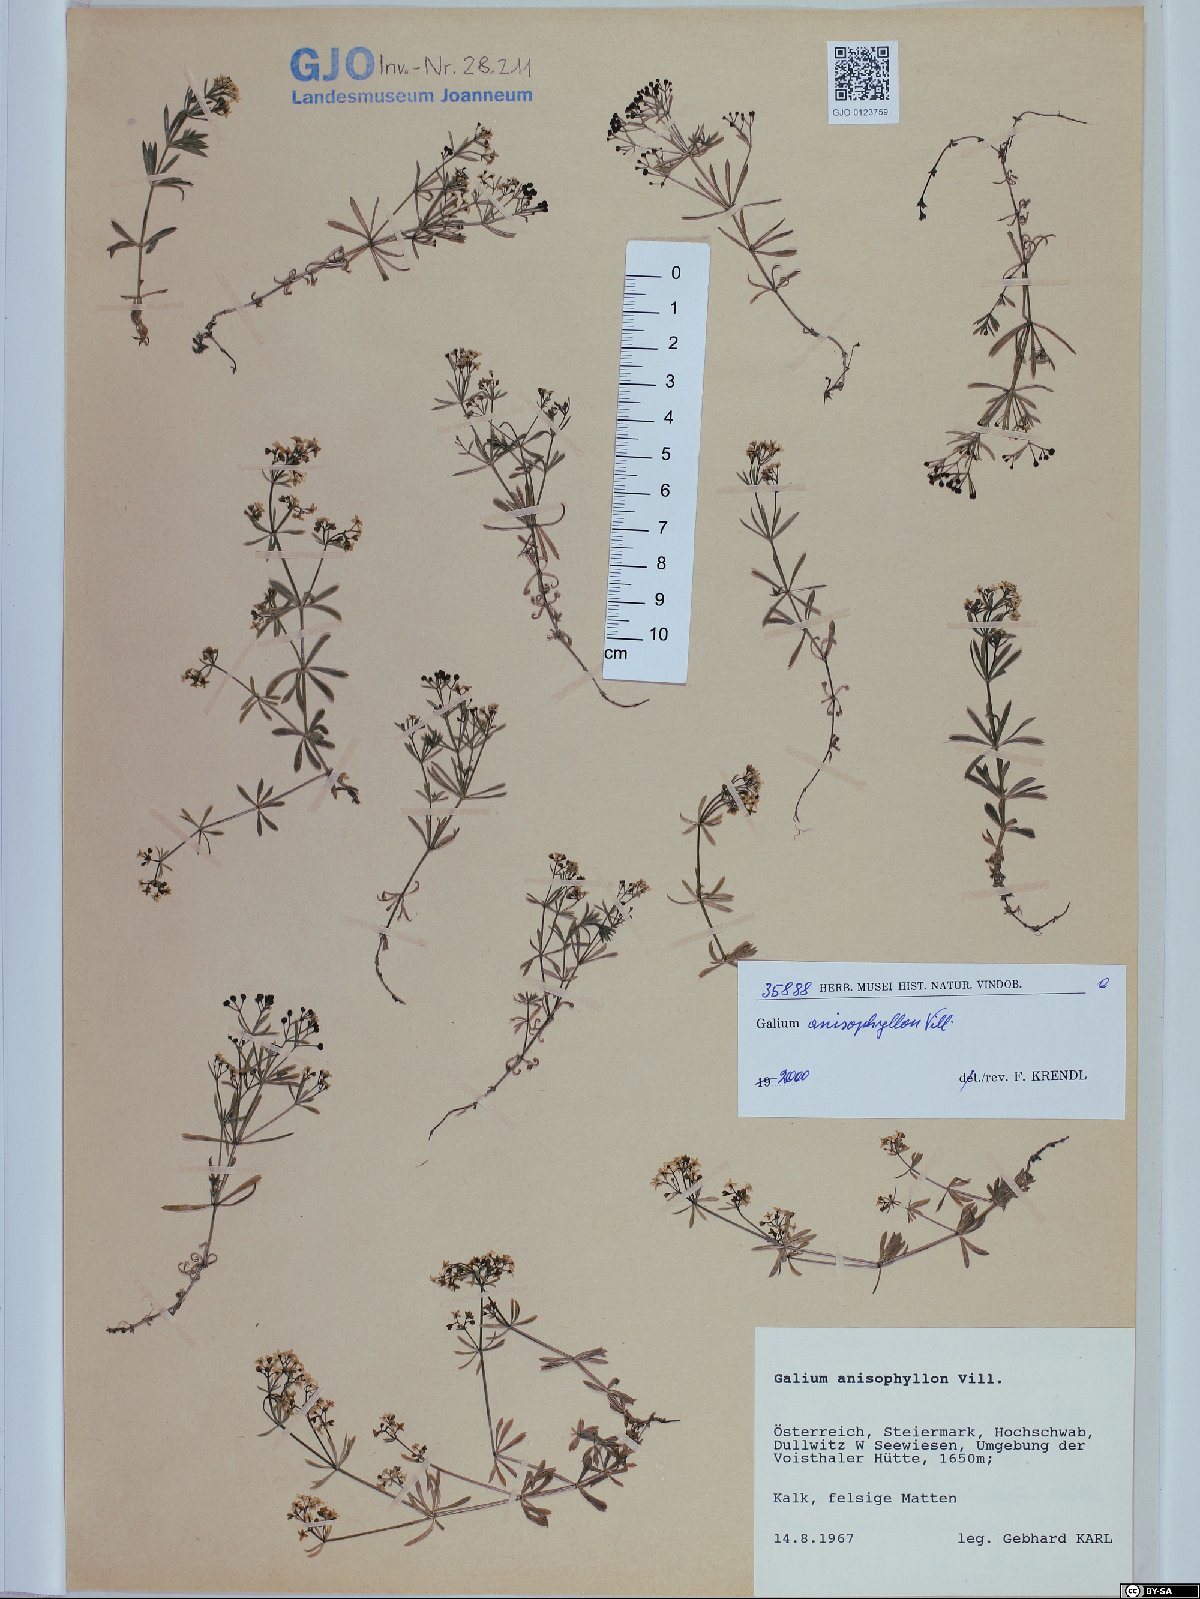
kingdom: Plantae
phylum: Tracheophyta
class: Magnoliopsida
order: Gentianales
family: Rubiaceae
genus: Galium
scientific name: Galium anisophyllon
